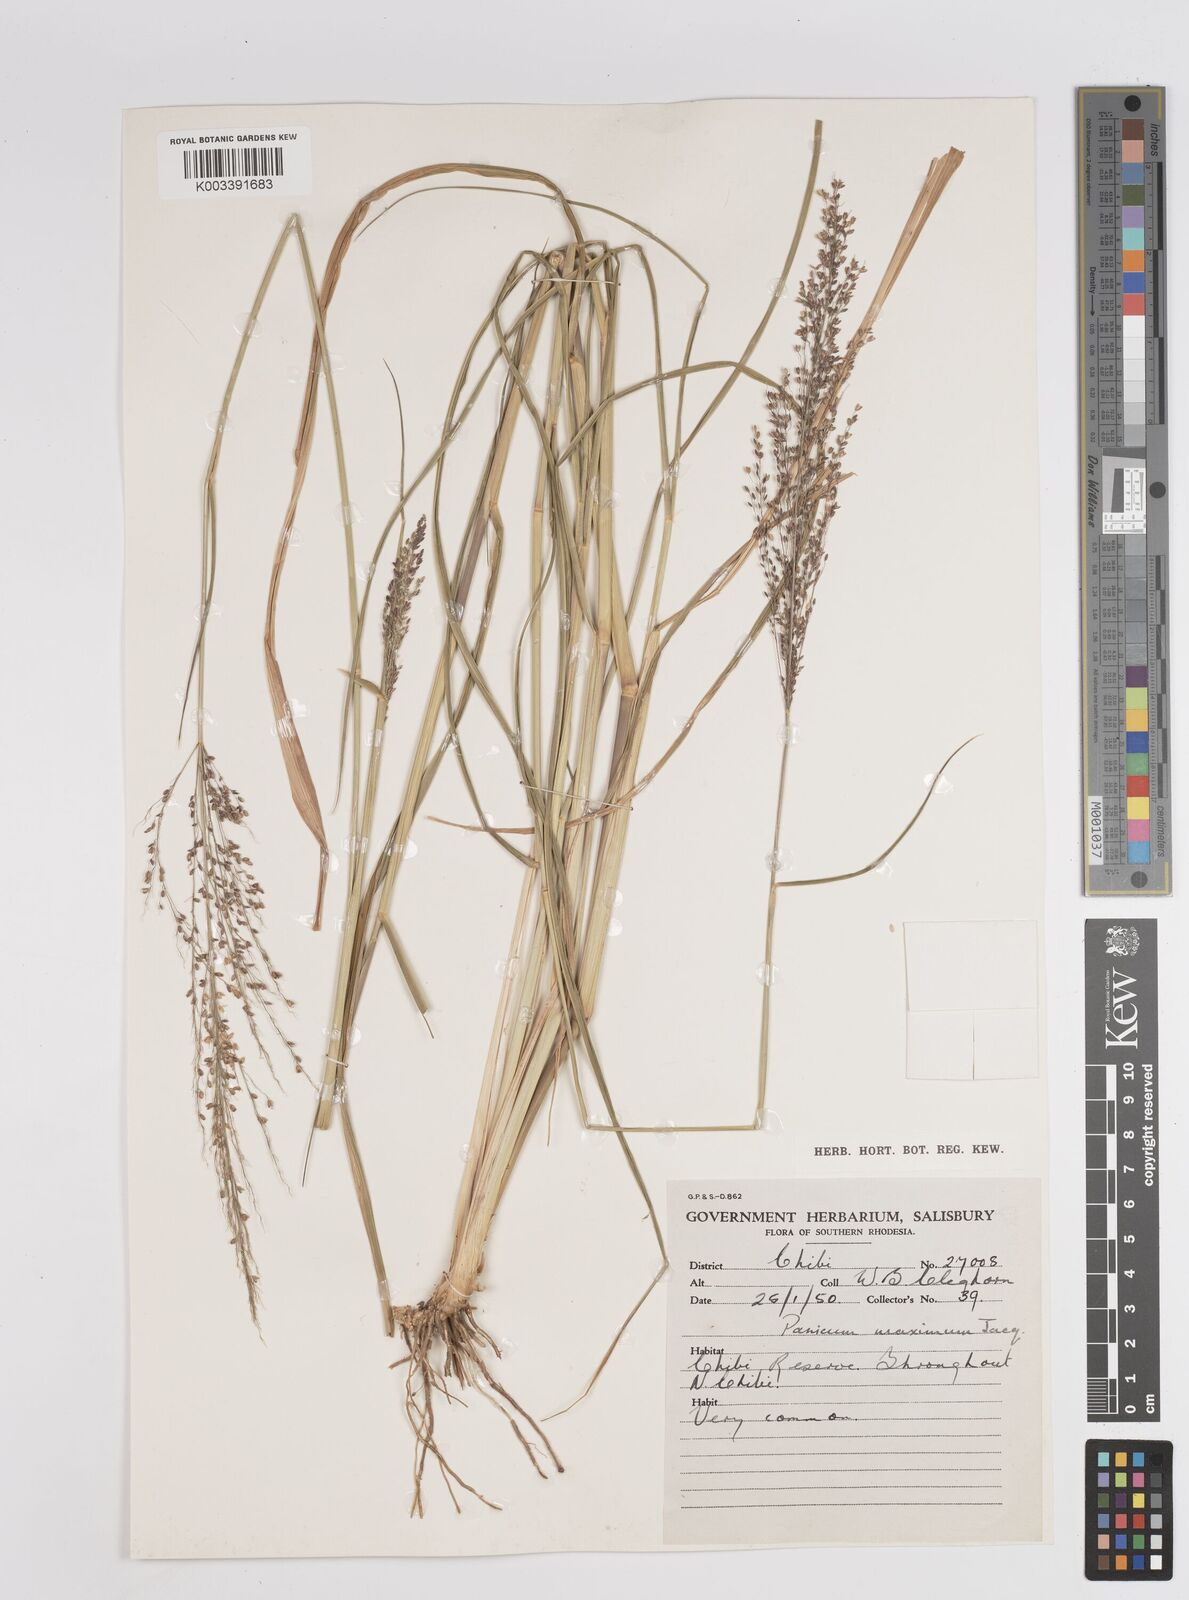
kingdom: Plantae
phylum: Tracheophyta
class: Liliopsida
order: Poales
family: Poaceae
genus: Megathyrsus
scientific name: Megathyrsus maximus
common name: Guineagrass
